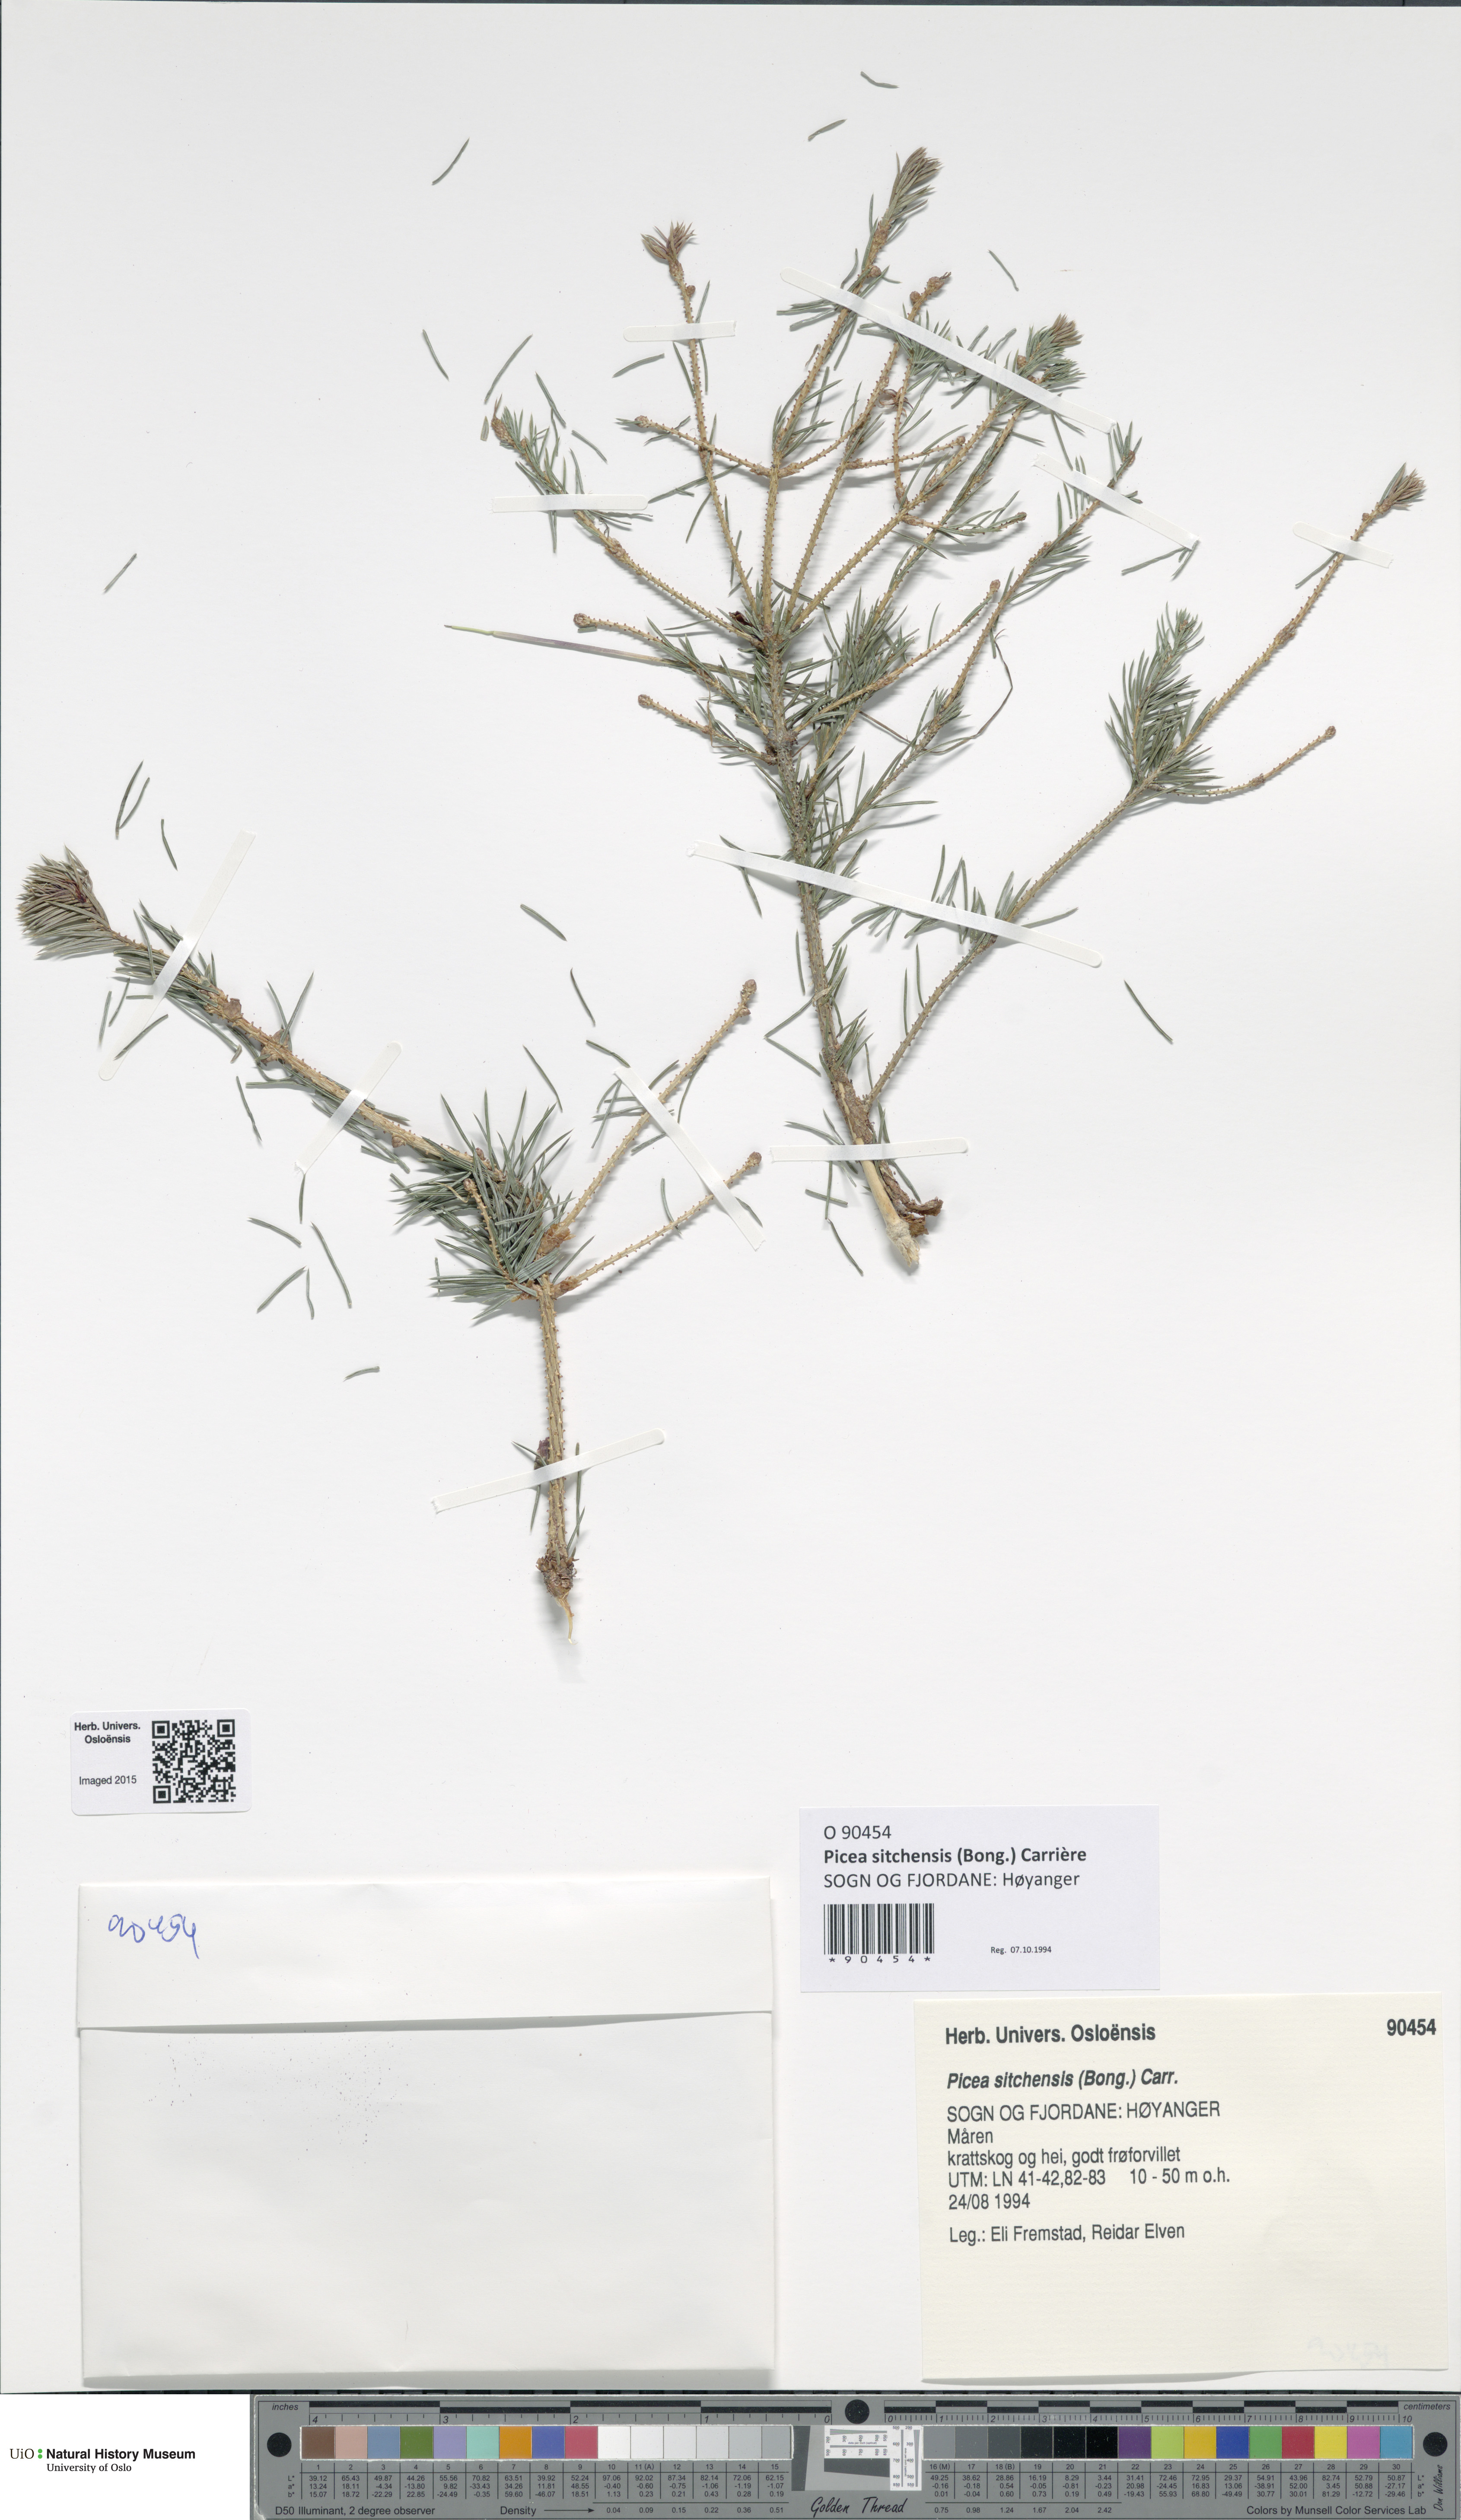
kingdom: Plantae
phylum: Tracheophyta
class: Pinopsida
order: Pinales
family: Pinaceae
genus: Picea
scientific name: Picea sitchensis
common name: Sitka spruce
